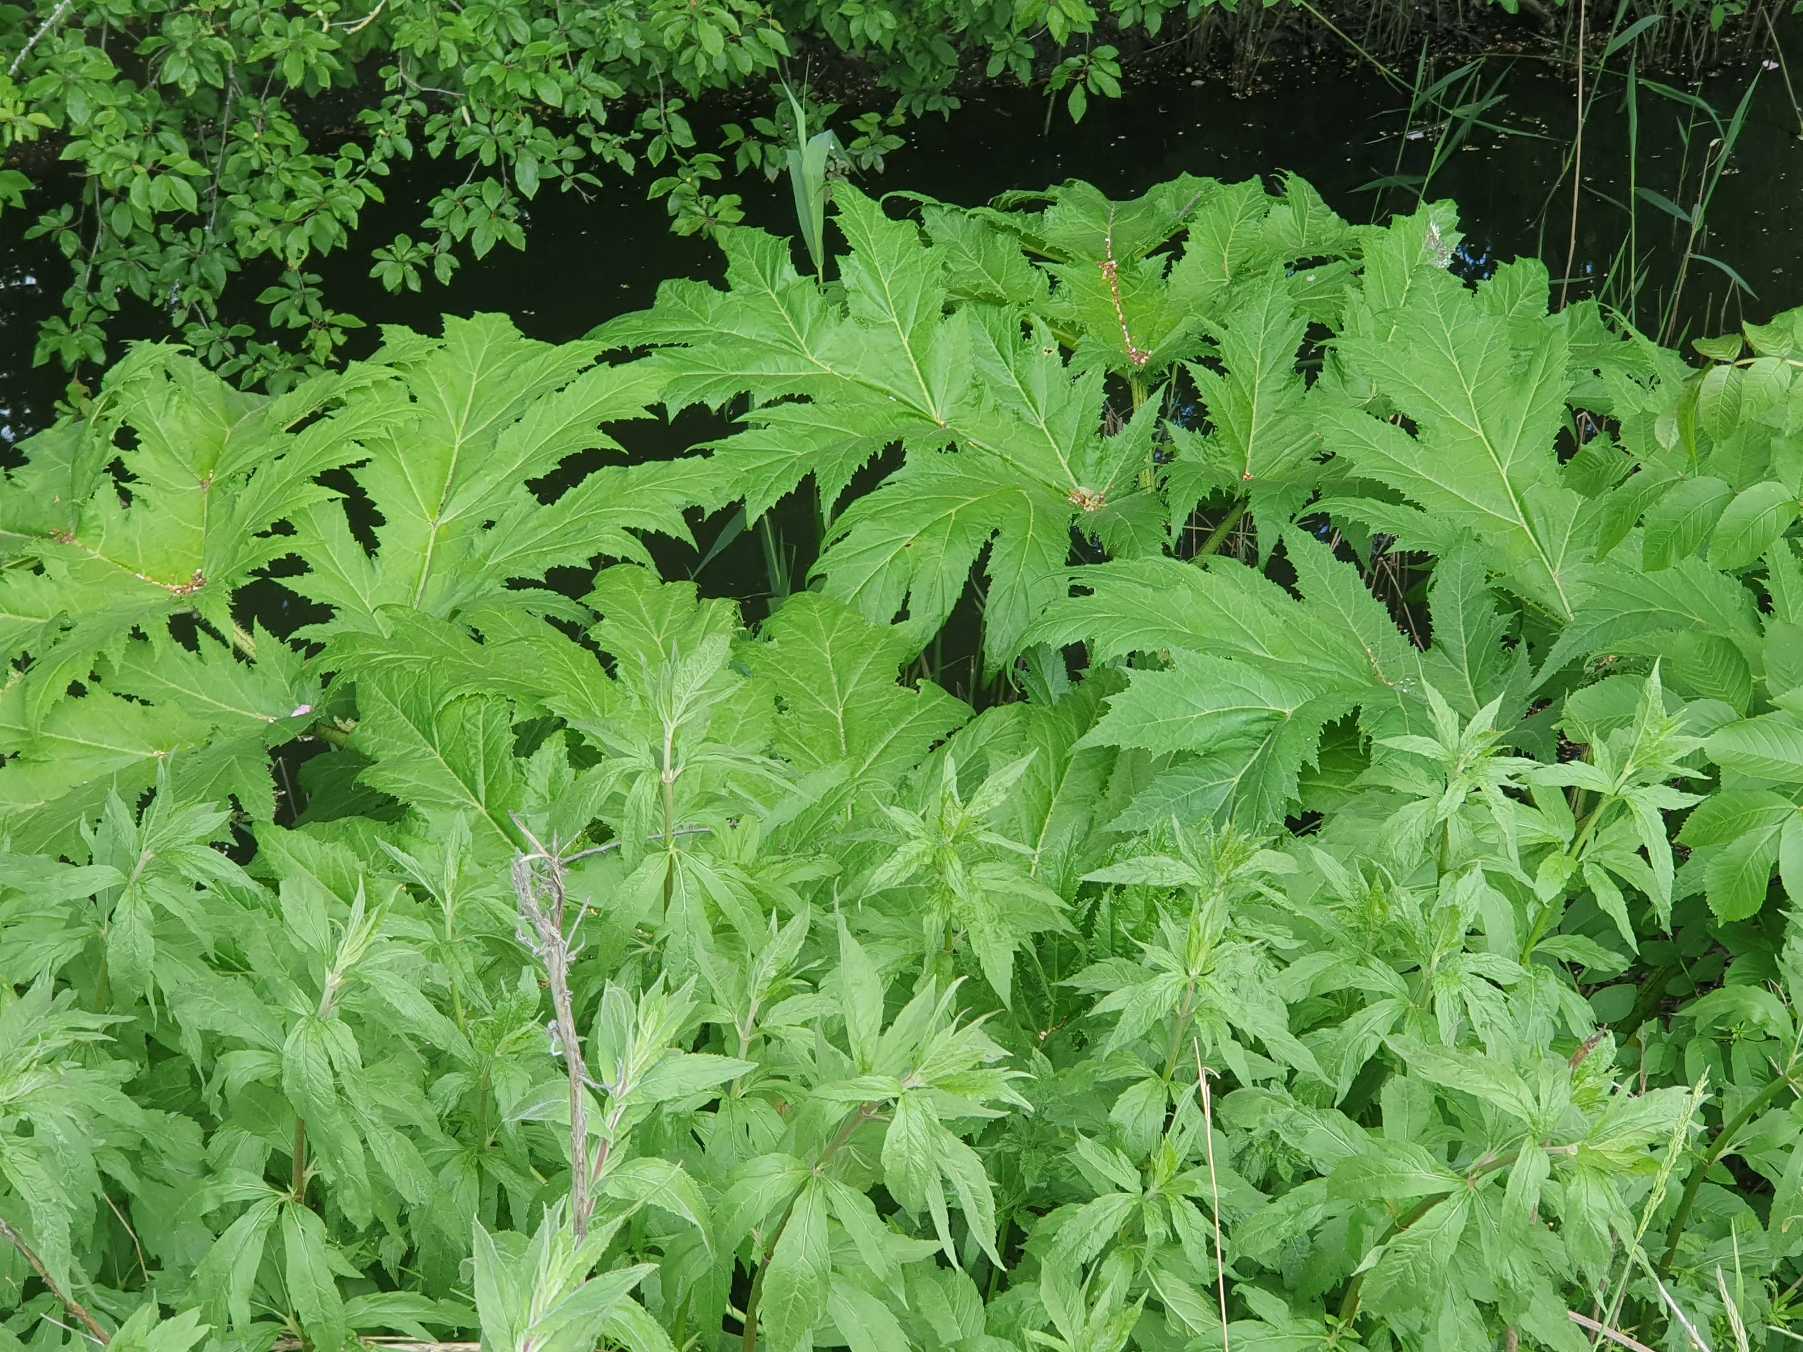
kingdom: Plantae
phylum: Tracheophyta
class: Magnoliopsida
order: Apiales
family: Apiaceae
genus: Heracleum
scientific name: Heracleum mantegazzianum
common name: Kæmpe-bjørneklo
